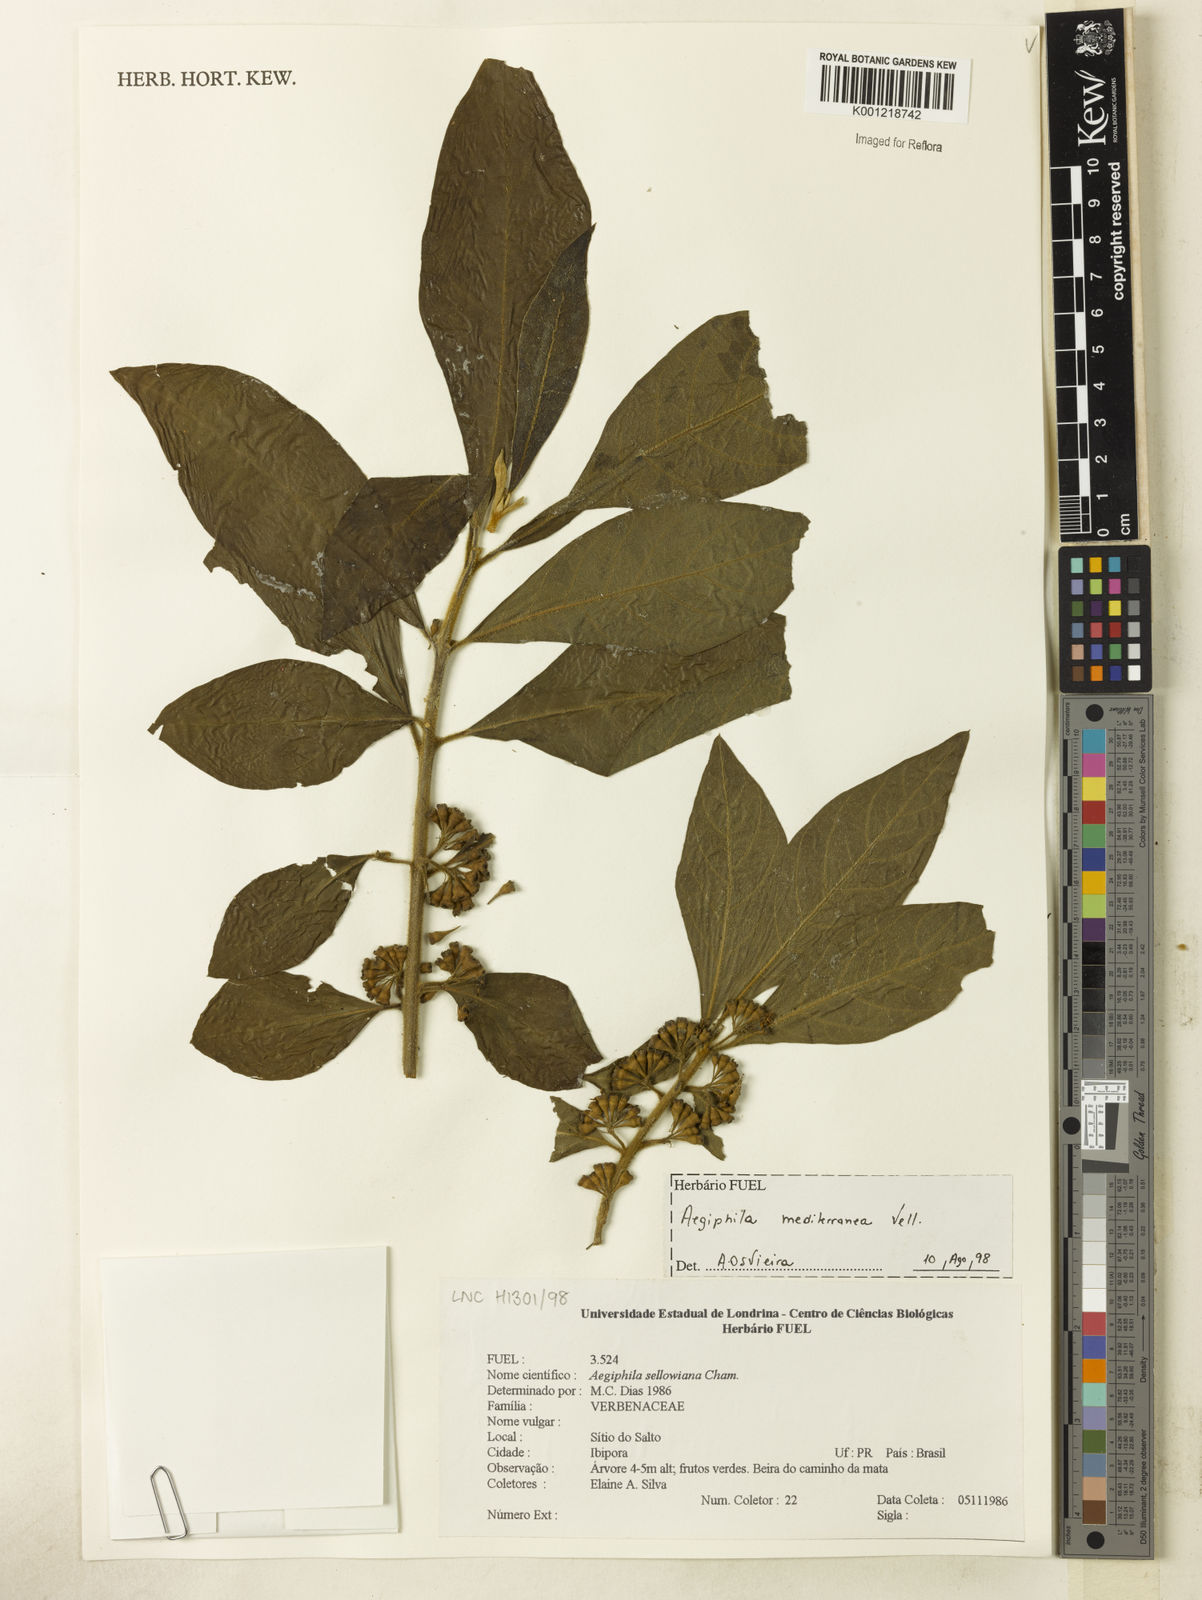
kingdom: Plantae
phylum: Tracheophyta
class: Magnoliopsida
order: Lamiales
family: Lamiaceae
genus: Aegiphila
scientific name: Aegiphila mediterranea
